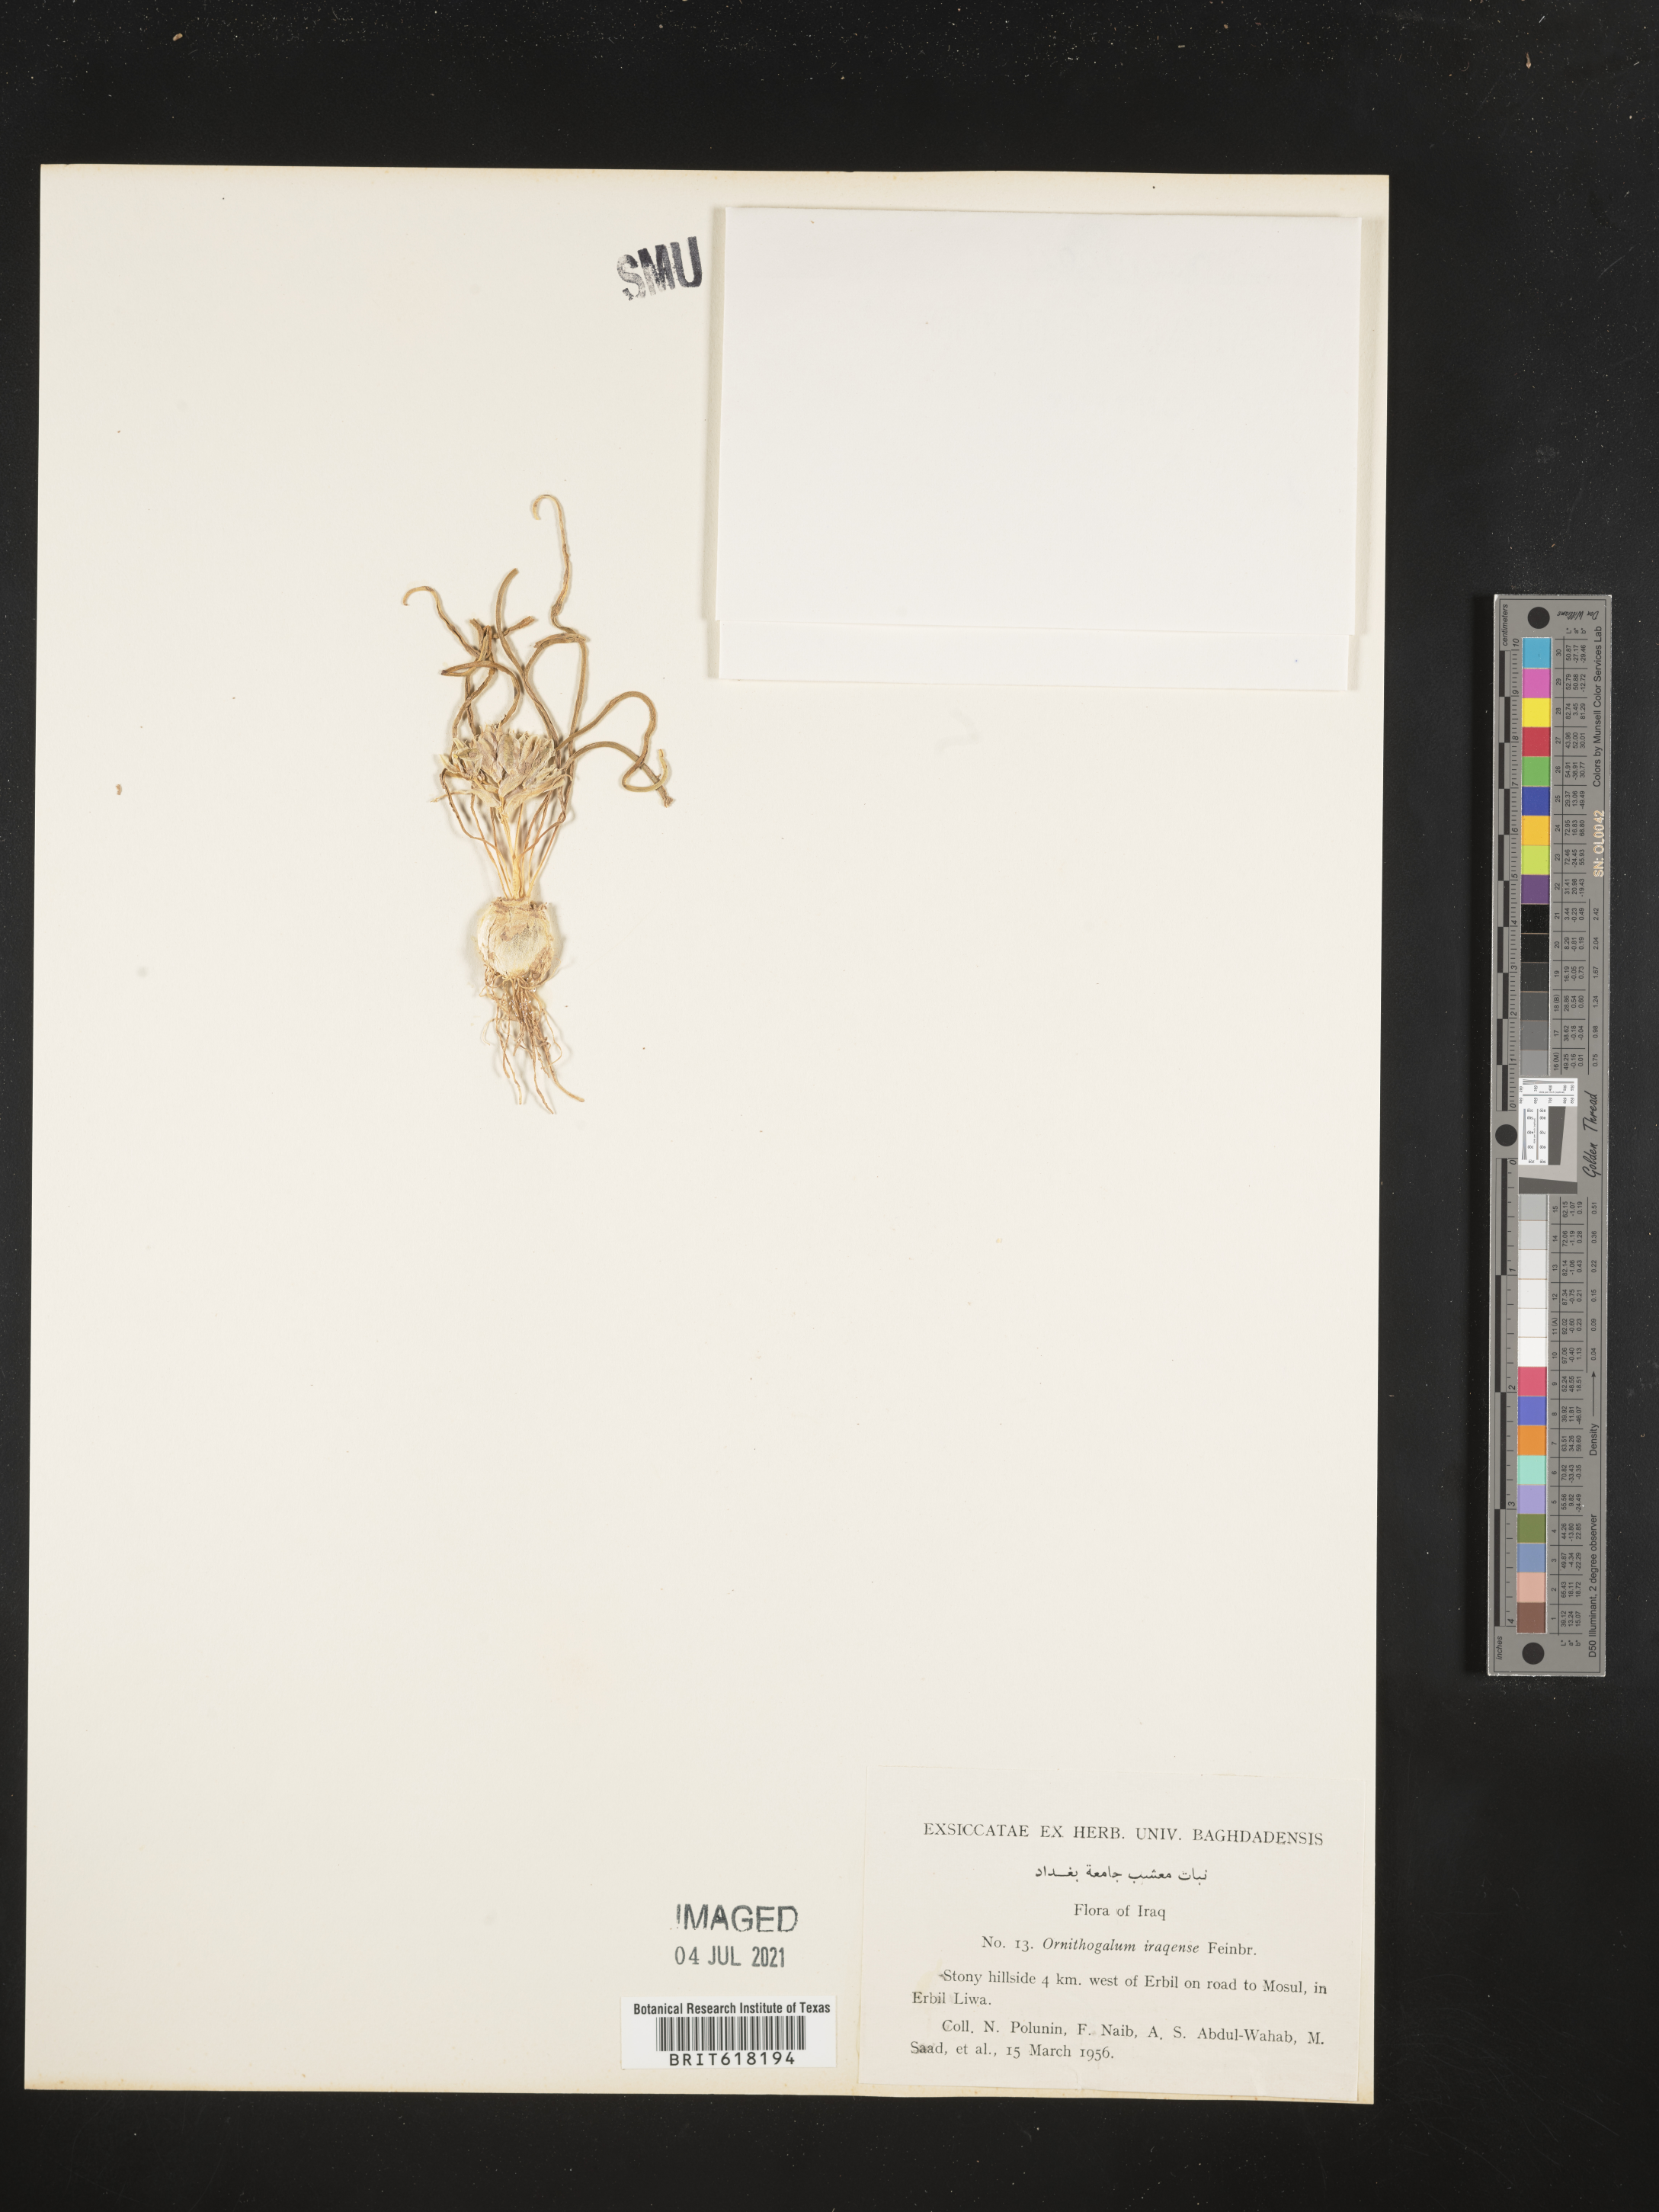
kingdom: Plantae
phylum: Tracheophyta
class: Liliopsida
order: Asparagales
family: Asparagaceae
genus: Ornithogalum
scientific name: Ornithogalum iraqense
